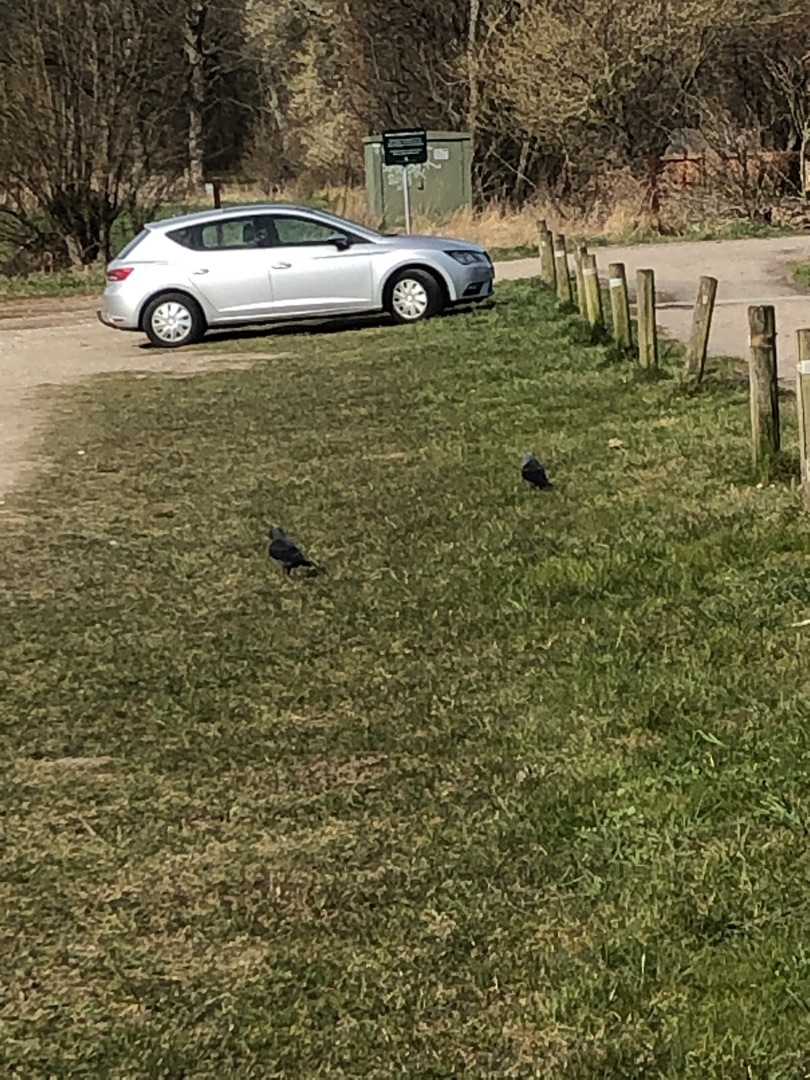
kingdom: Animalia
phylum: Chordata
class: Aves
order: Passeriformes
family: Corvidae
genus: Corvus
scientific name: Corvus cornix
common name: Gråkrage
